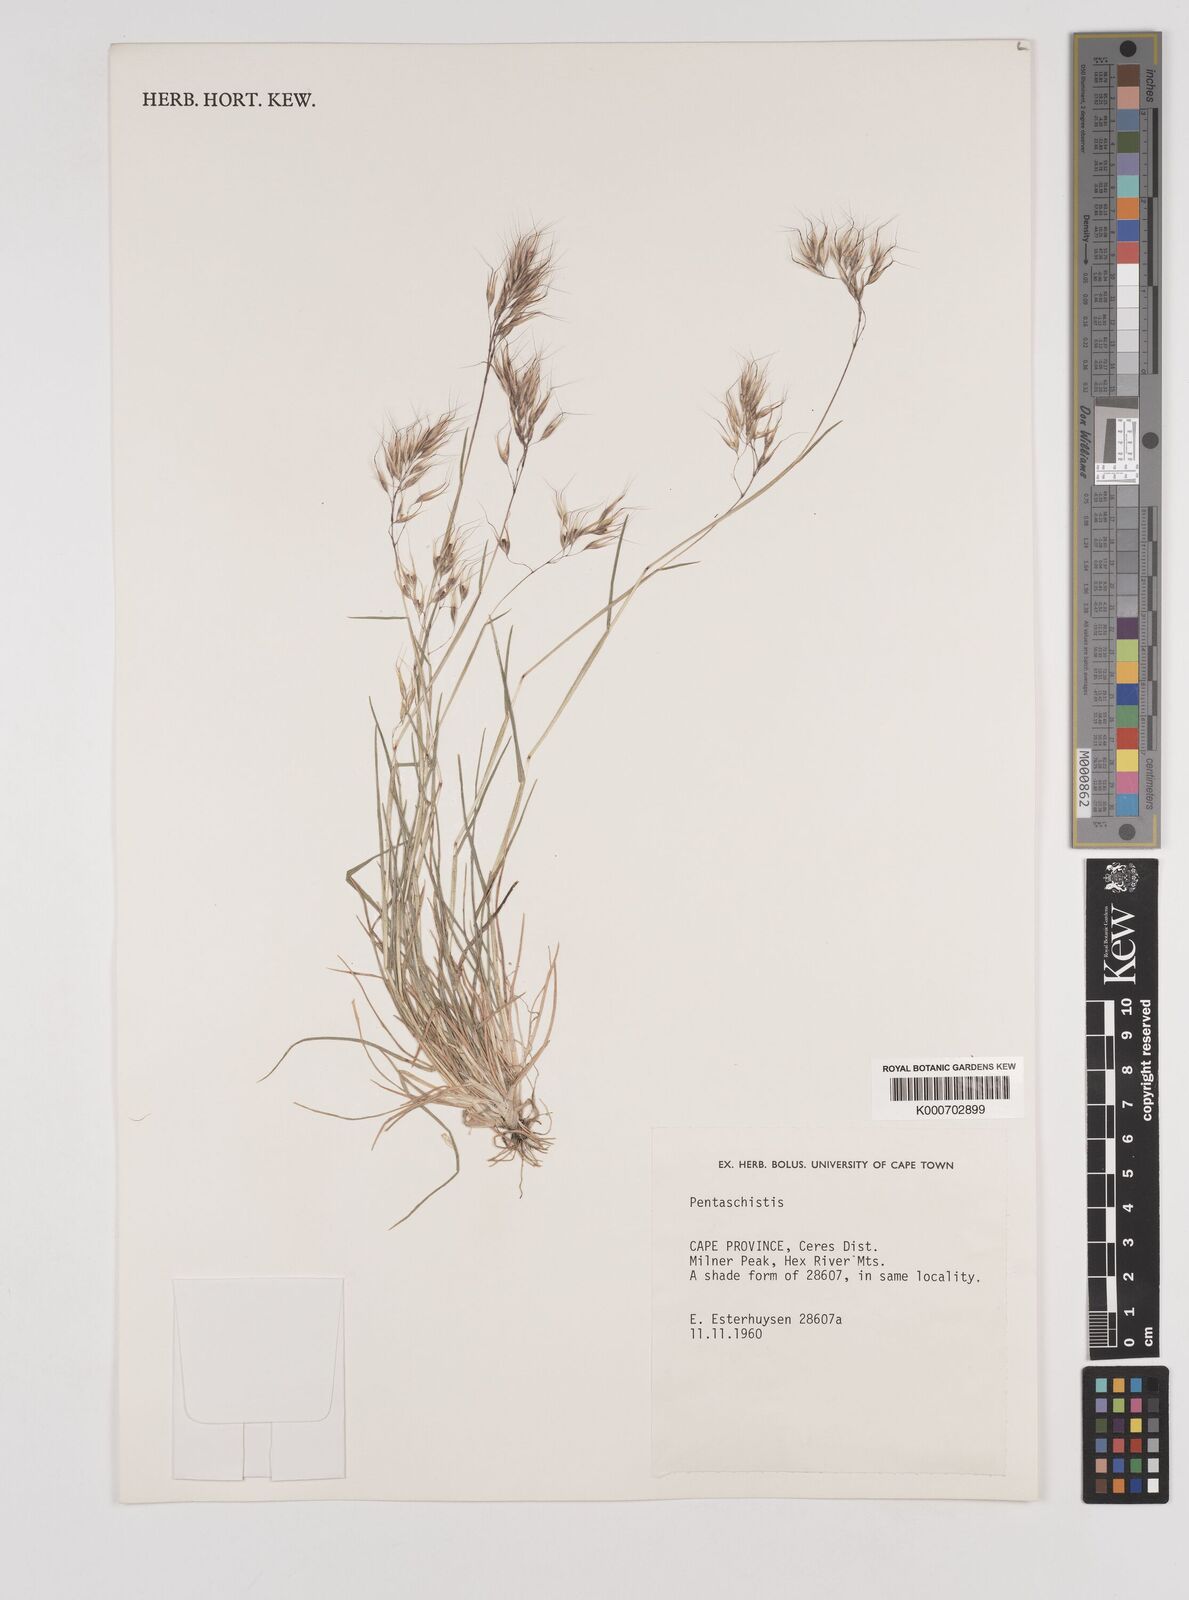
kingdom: Plantae
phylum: Tracheophyta
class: Liliopsida
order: Poales
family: Poaceae
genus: Pentameris
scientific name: Pentameris barbata
